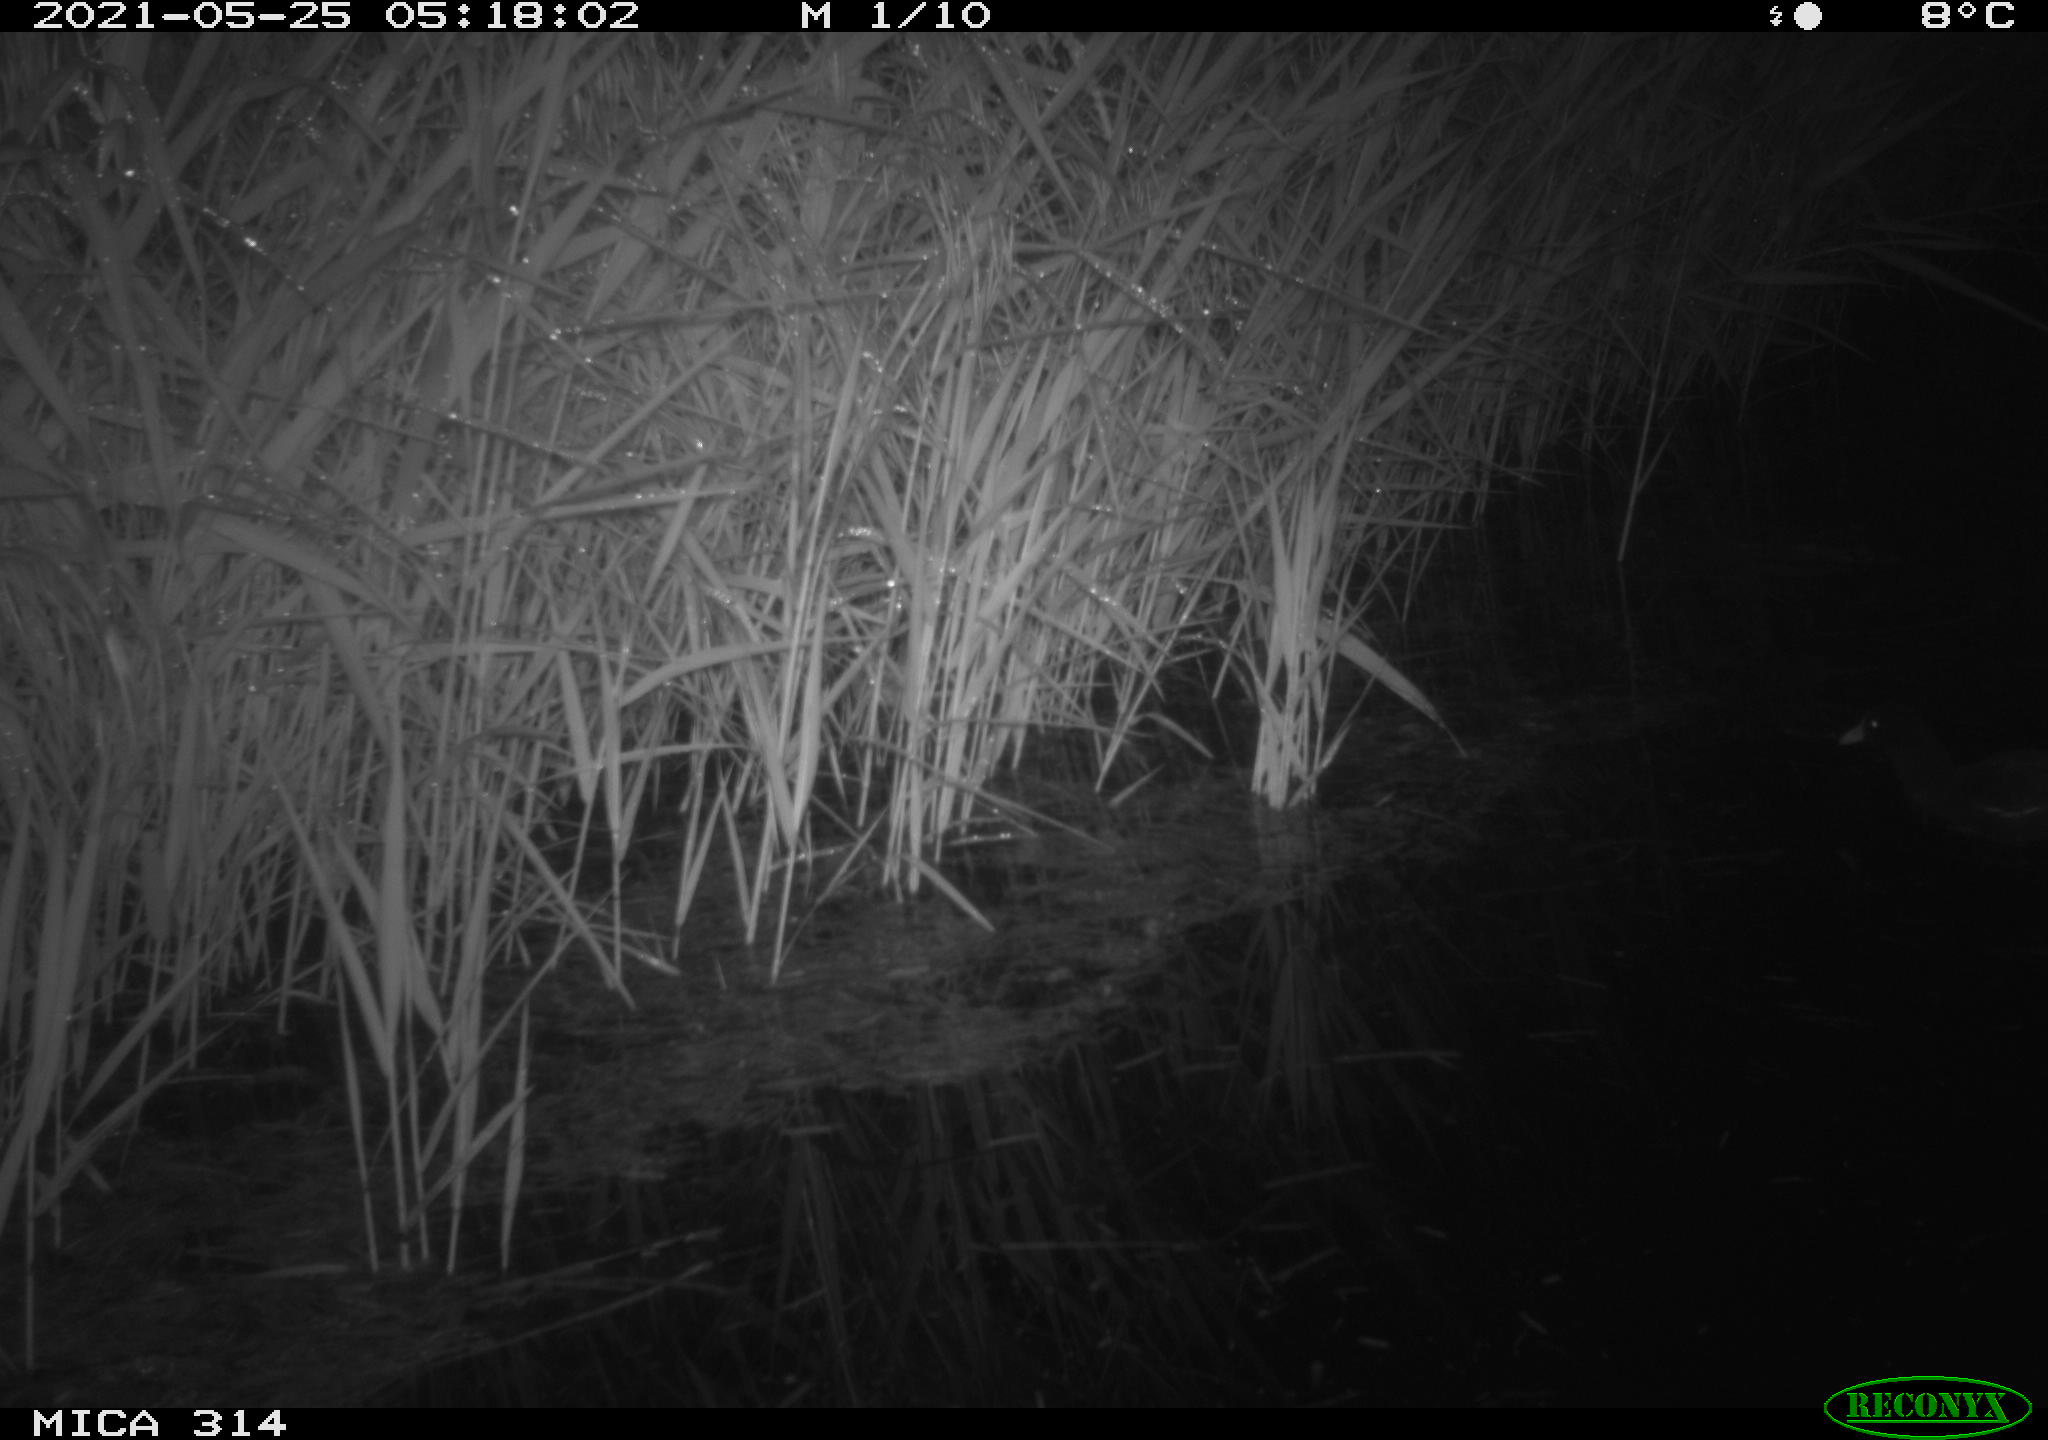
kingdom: Animalia
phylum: Chordata
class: Aves
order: Gruiformes
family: Rallidae
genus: Gallinula
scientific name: Gallinula chloropus
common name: Common moorhen
